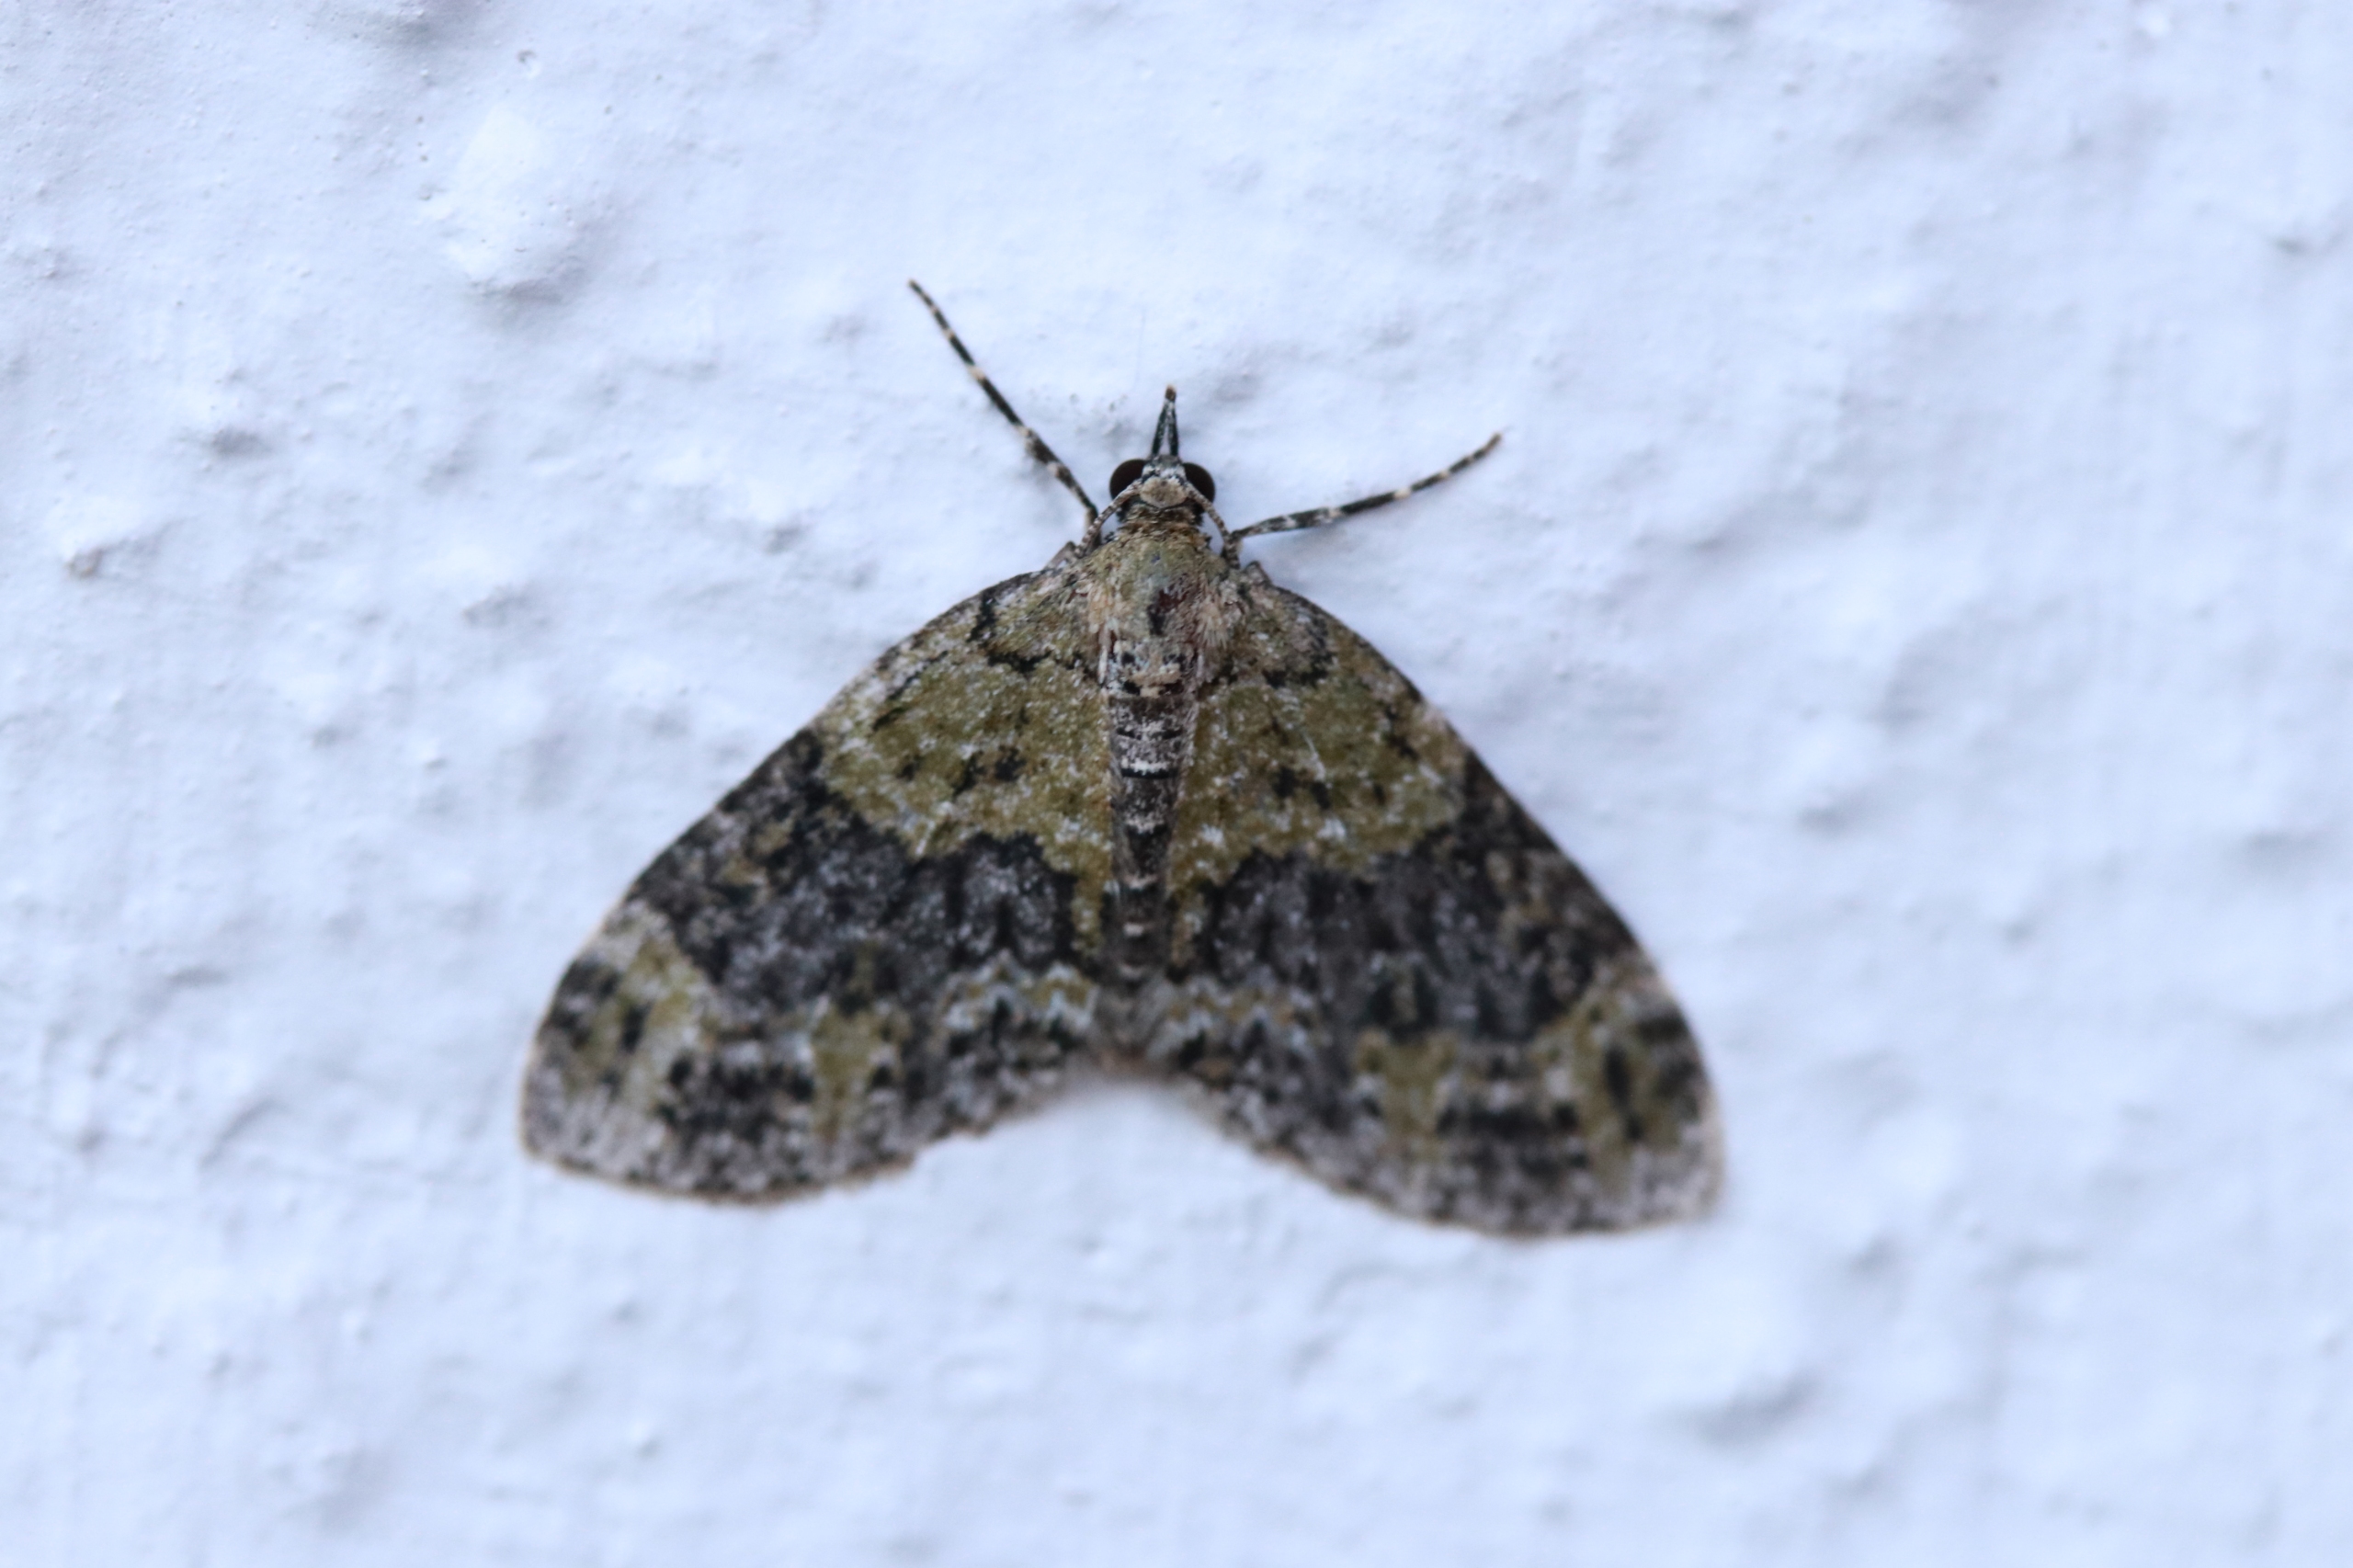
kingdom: Animalia
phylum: Arthropoda
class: Insecta
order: Lepidoptera
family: Geometridae
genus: Acasis
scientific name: Acasis viretata
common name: Tørstetræblomstmåler
